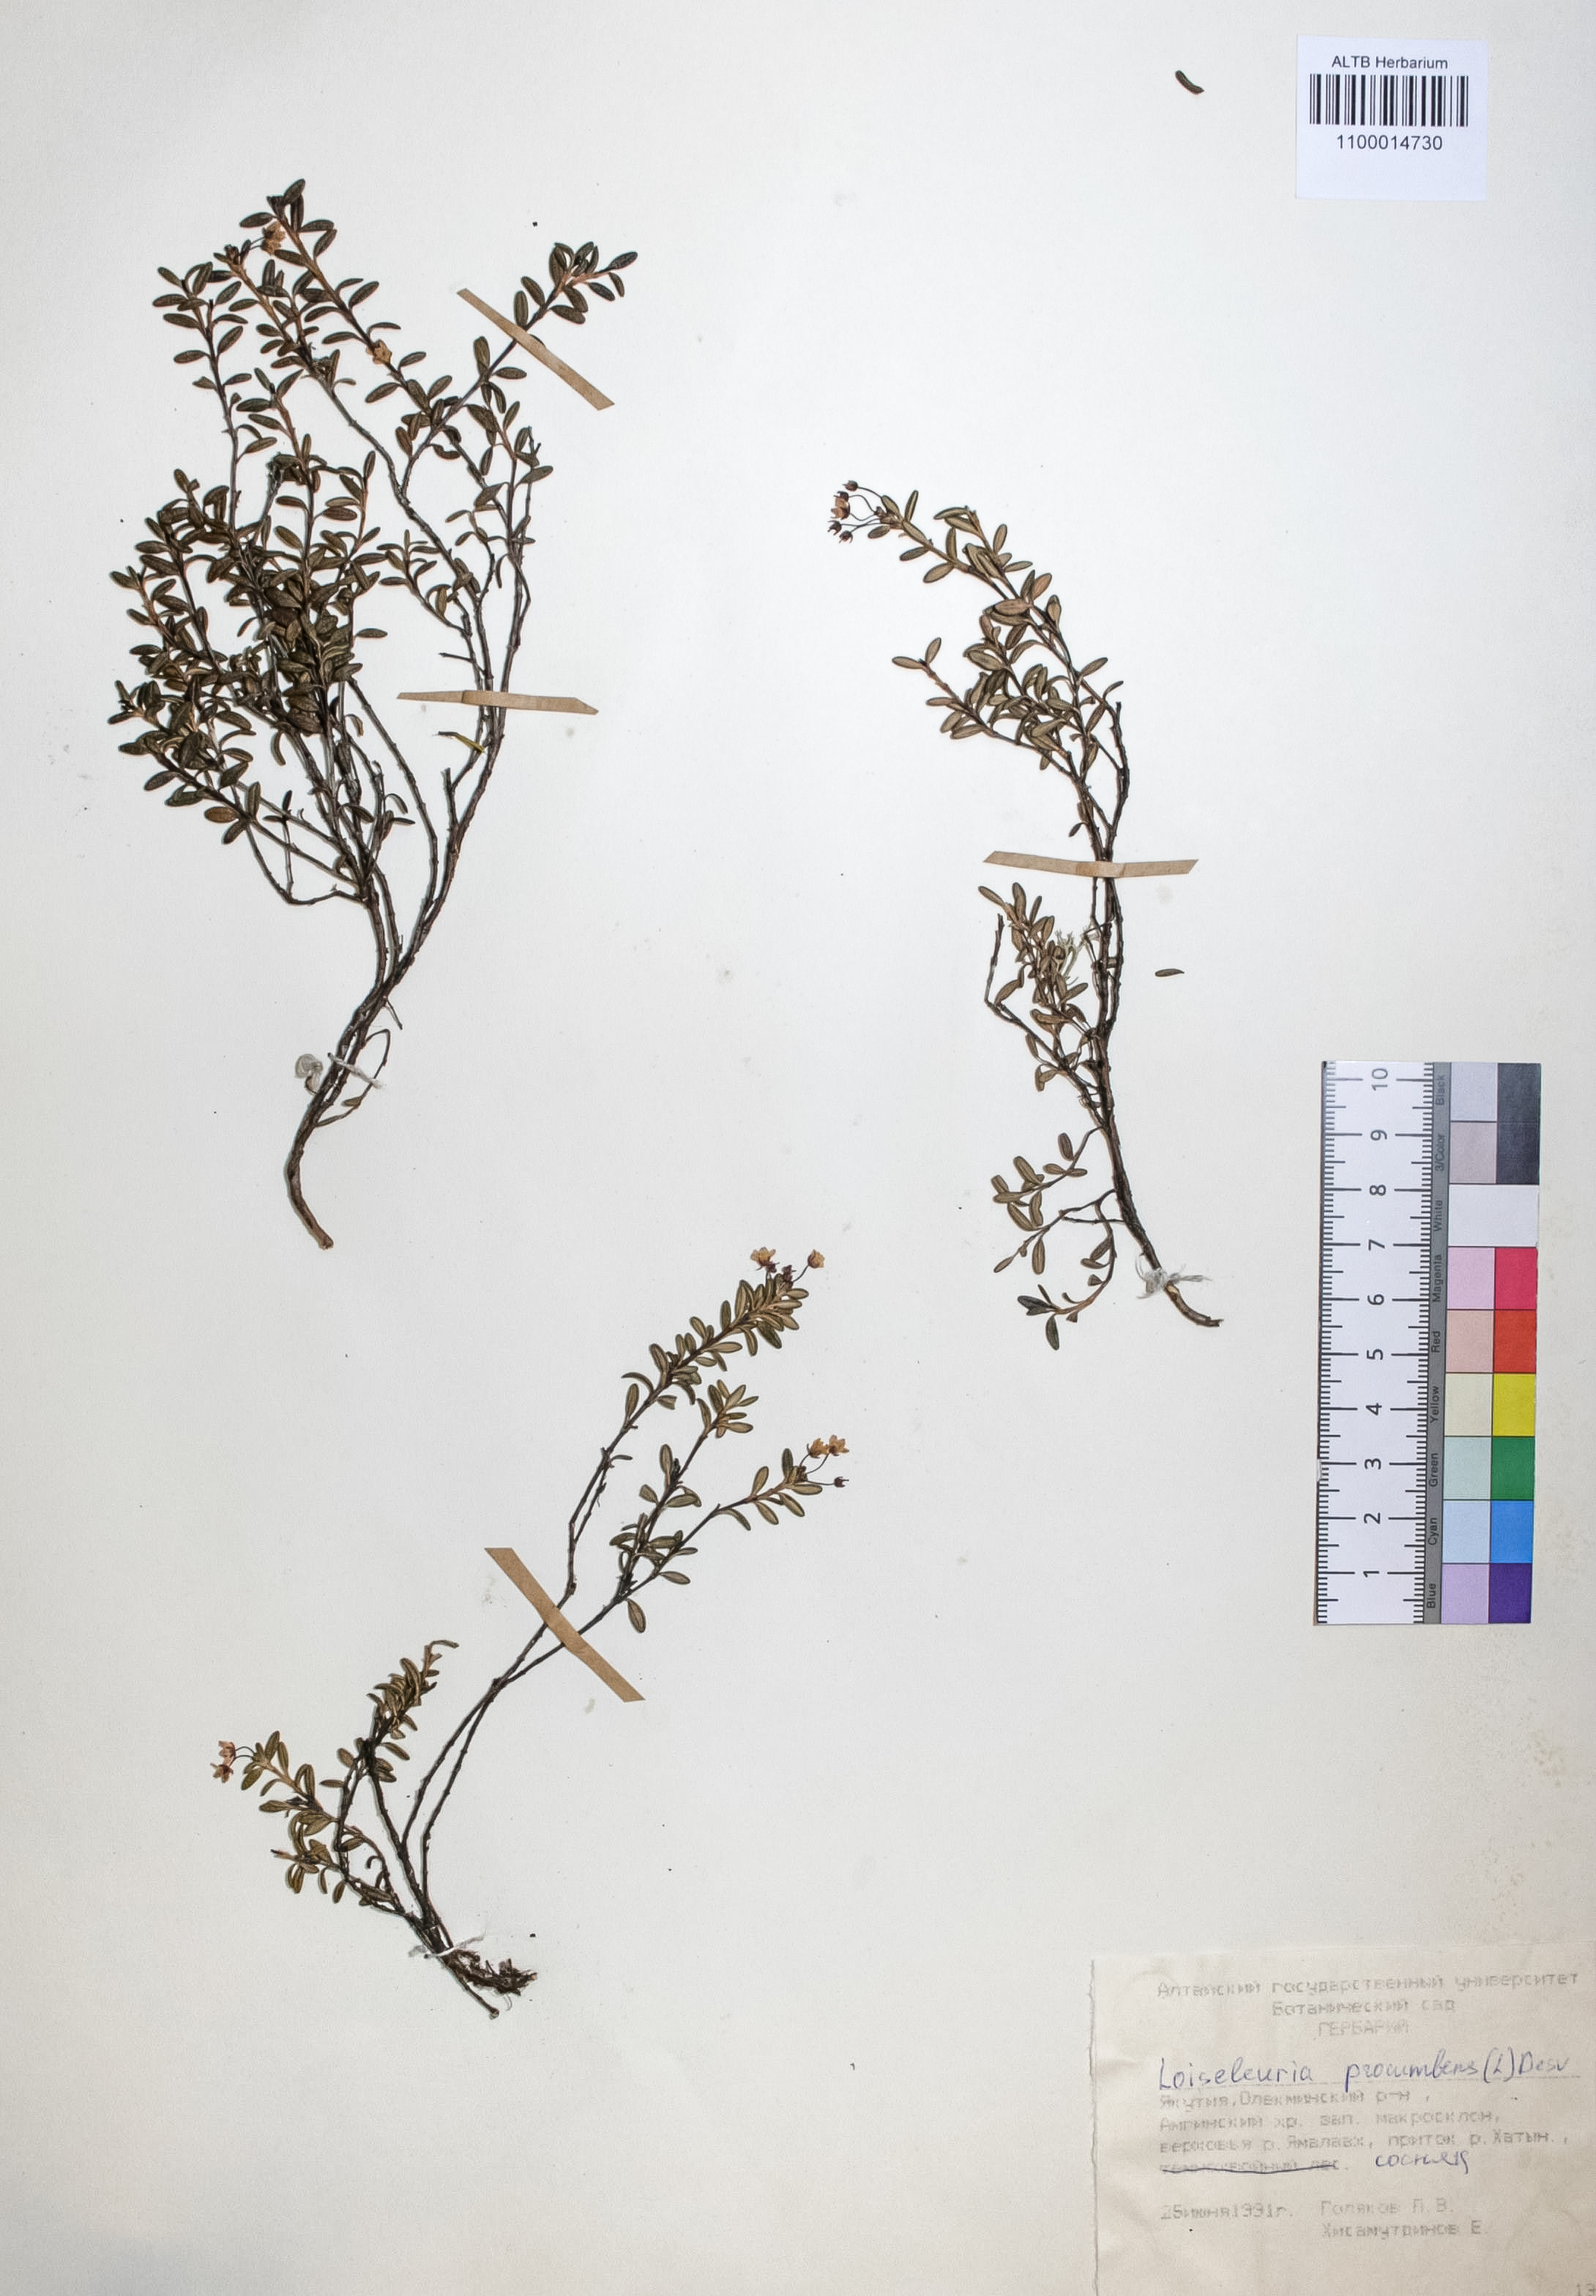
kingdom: Plantae
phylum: Tracheophyta
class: Magnoliopsida
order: Ericales
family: Ericaceae
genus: Kalmia
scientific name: Kalmia procumbens
